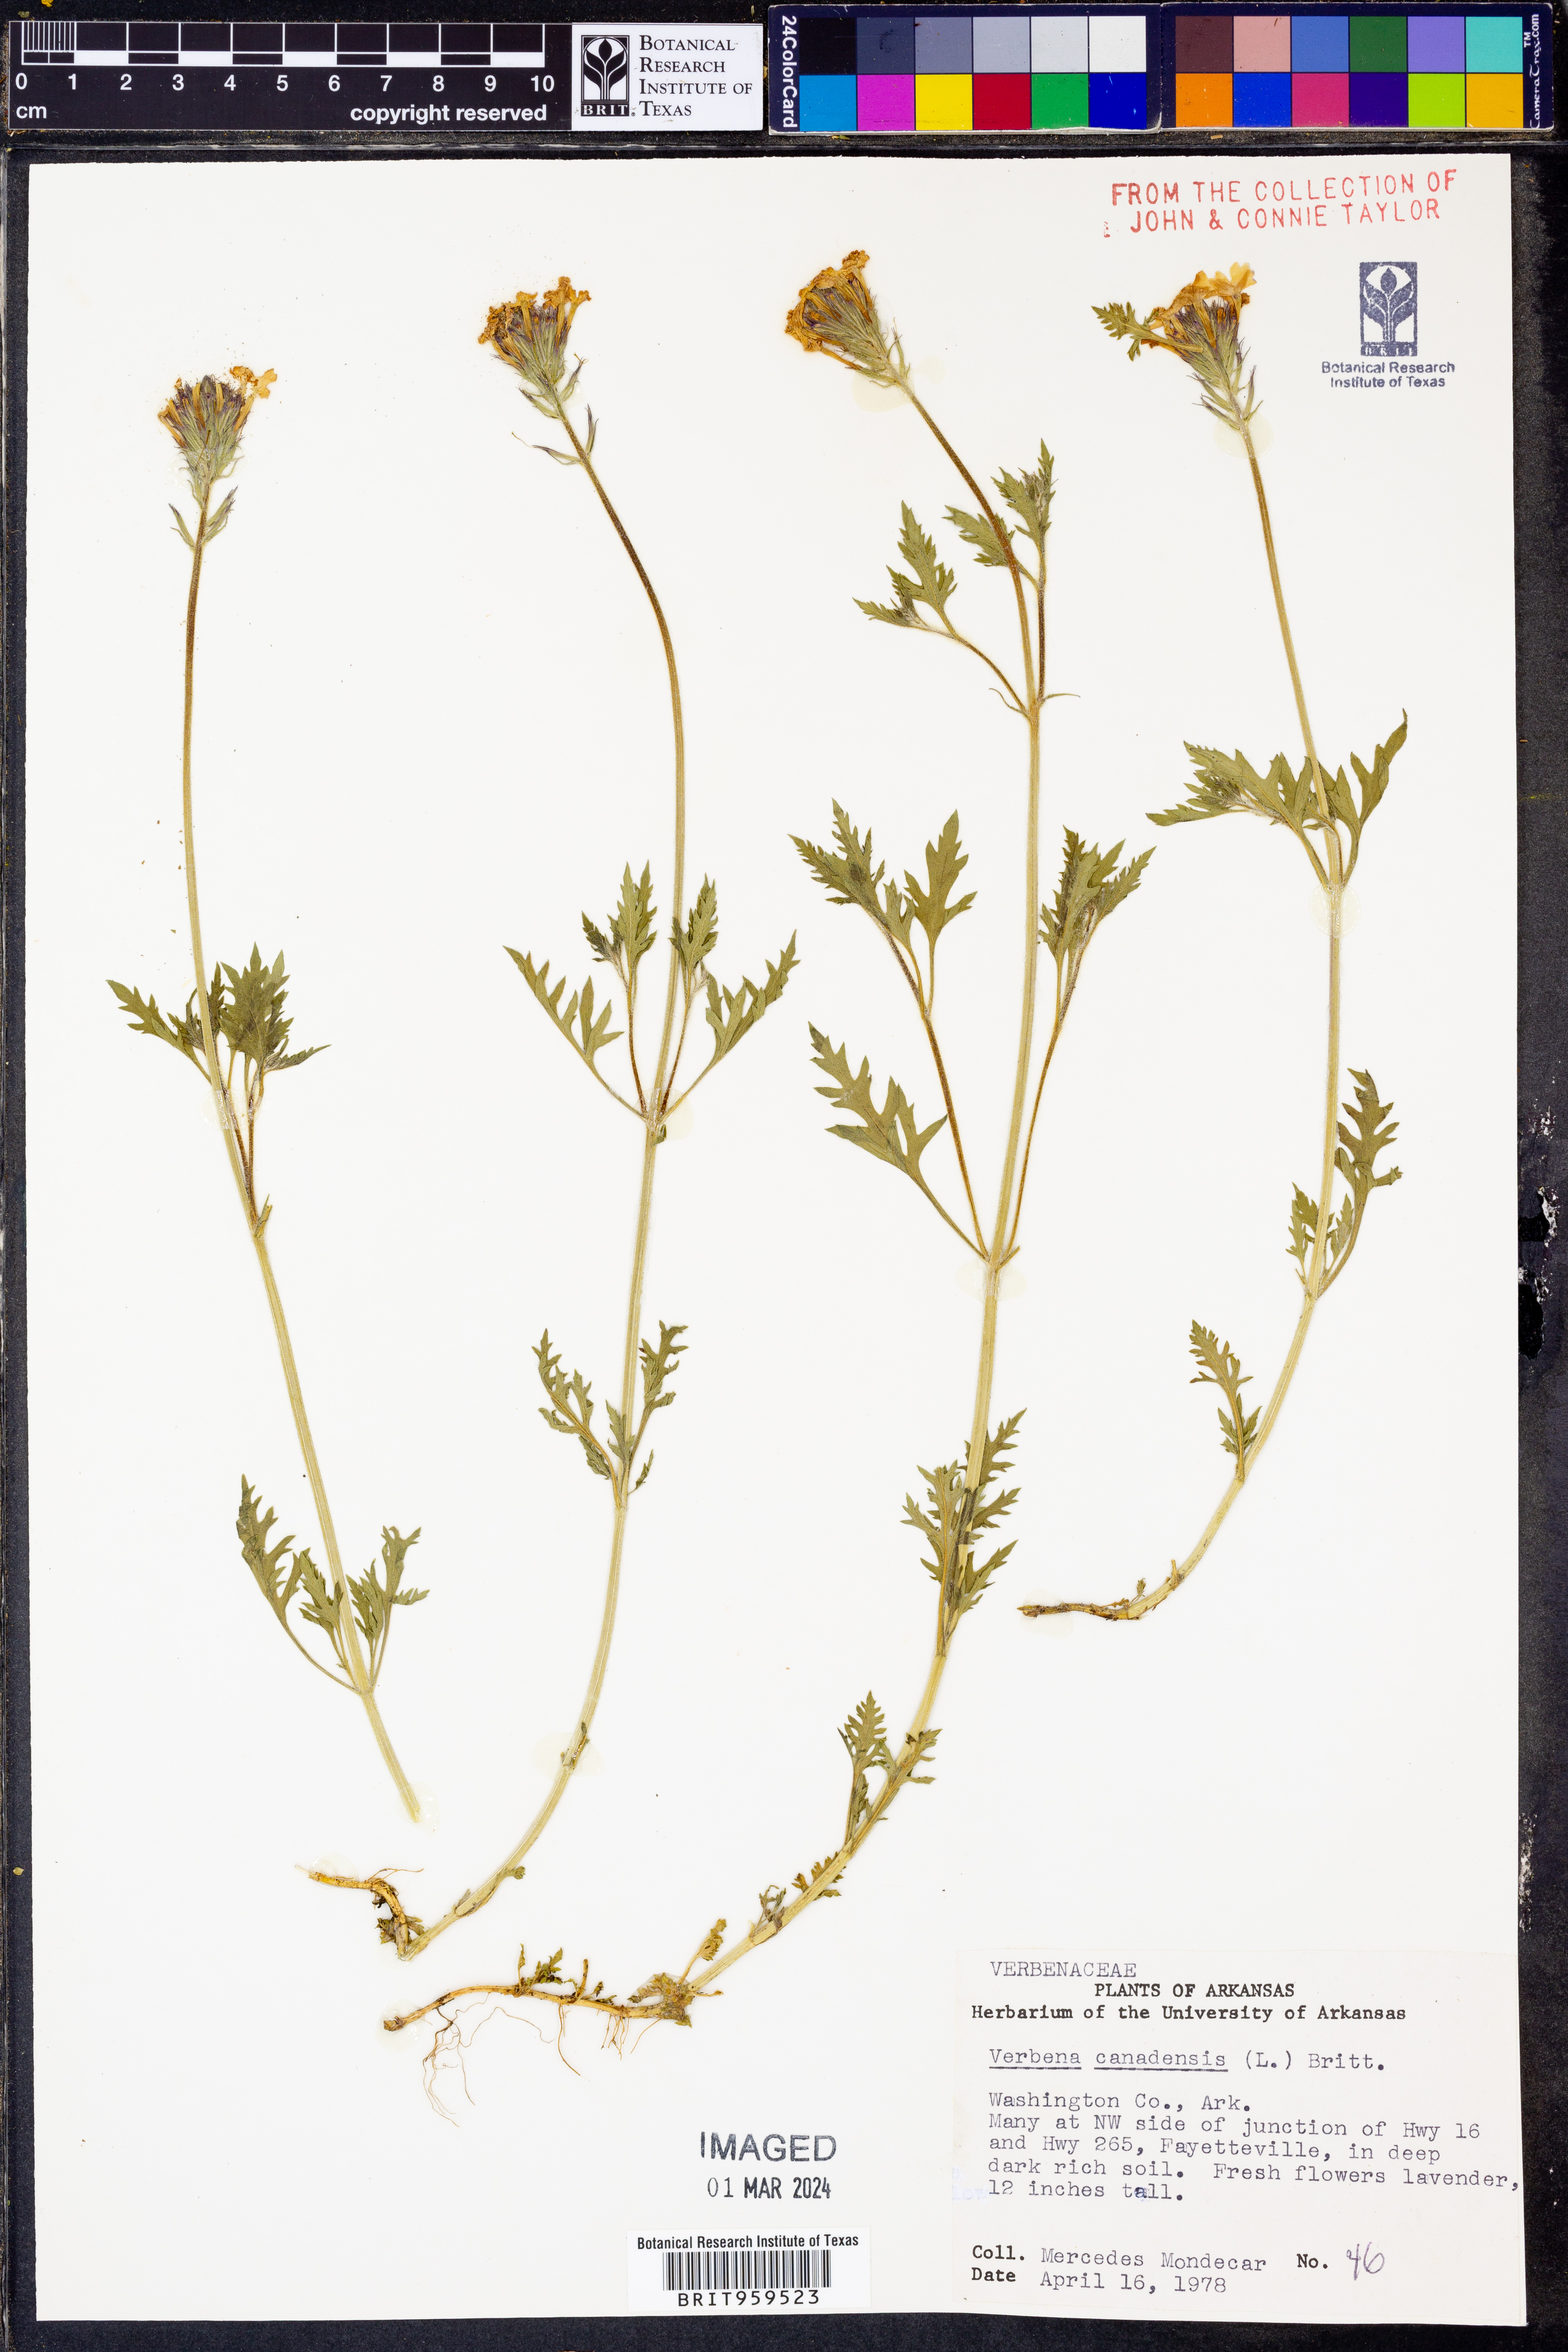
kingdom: Plantae
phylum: Tracheophyta
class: Magnoliopsida
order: Lamiales
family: Verbenaceae
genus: Verbena
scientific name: Verbena canadensis
